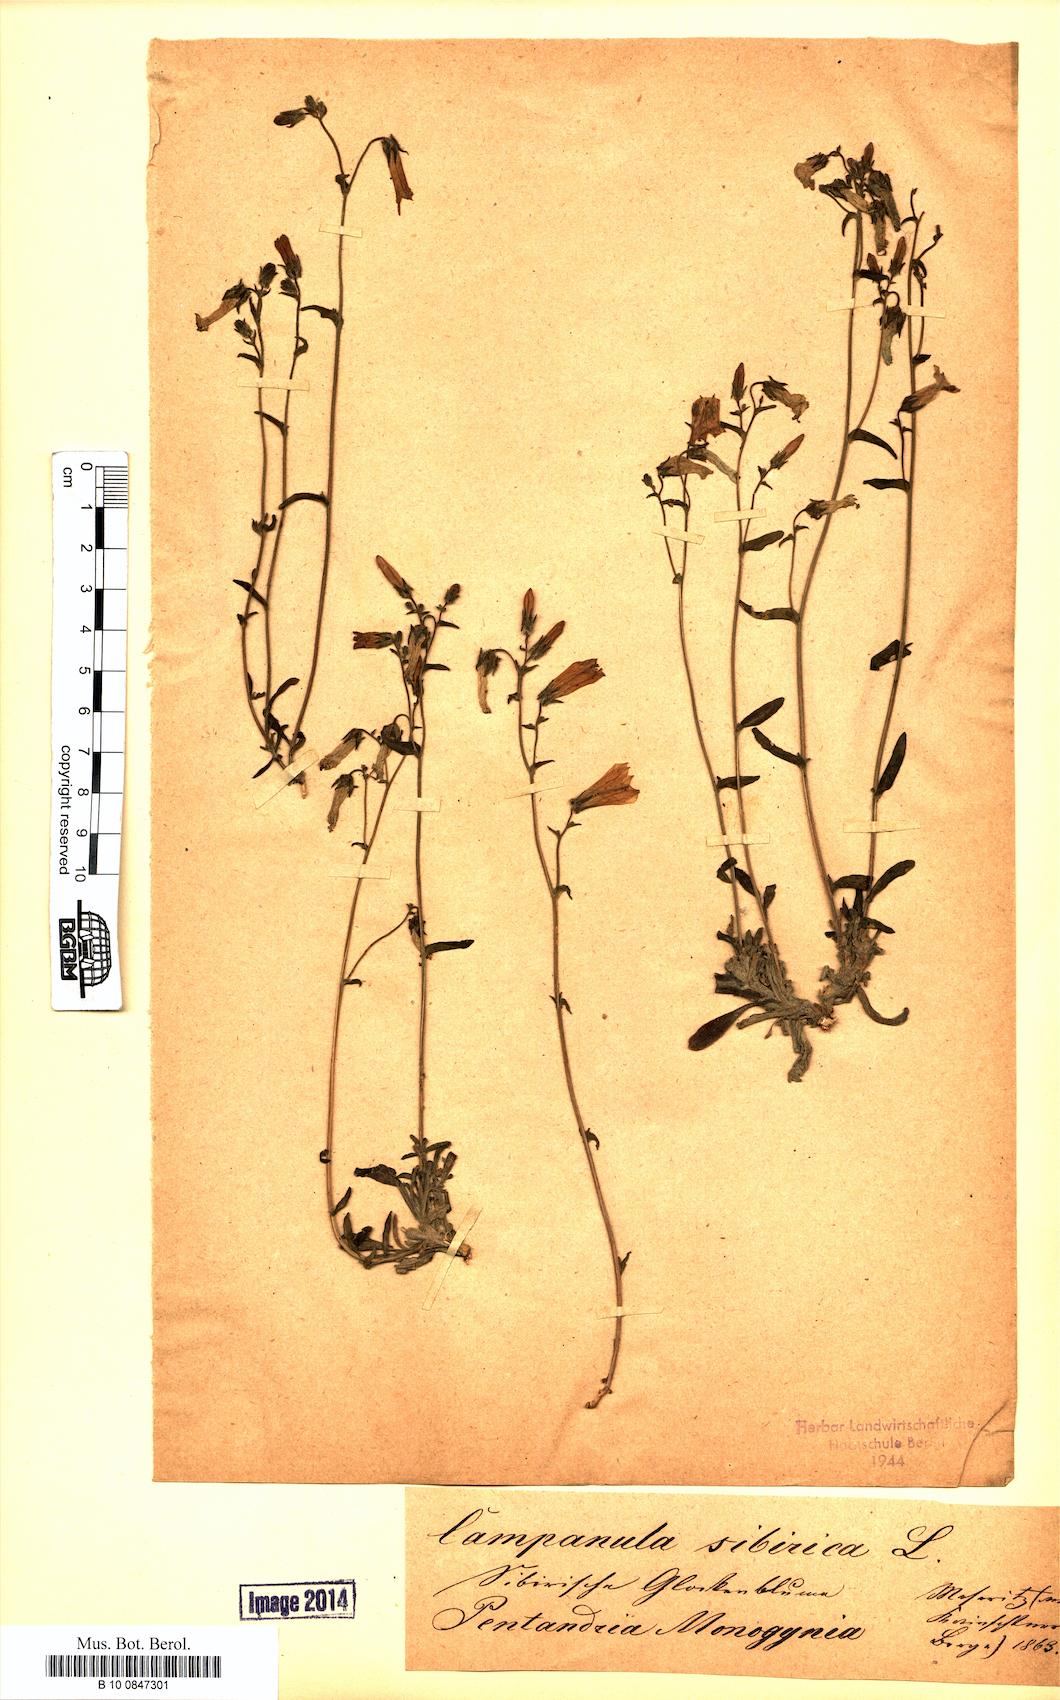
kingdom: Plantae
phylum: Tracheophyta
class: Magnoliopsida
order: Asterales
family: Campanulaceae
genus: Campanula
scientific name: Campanula sibirica
